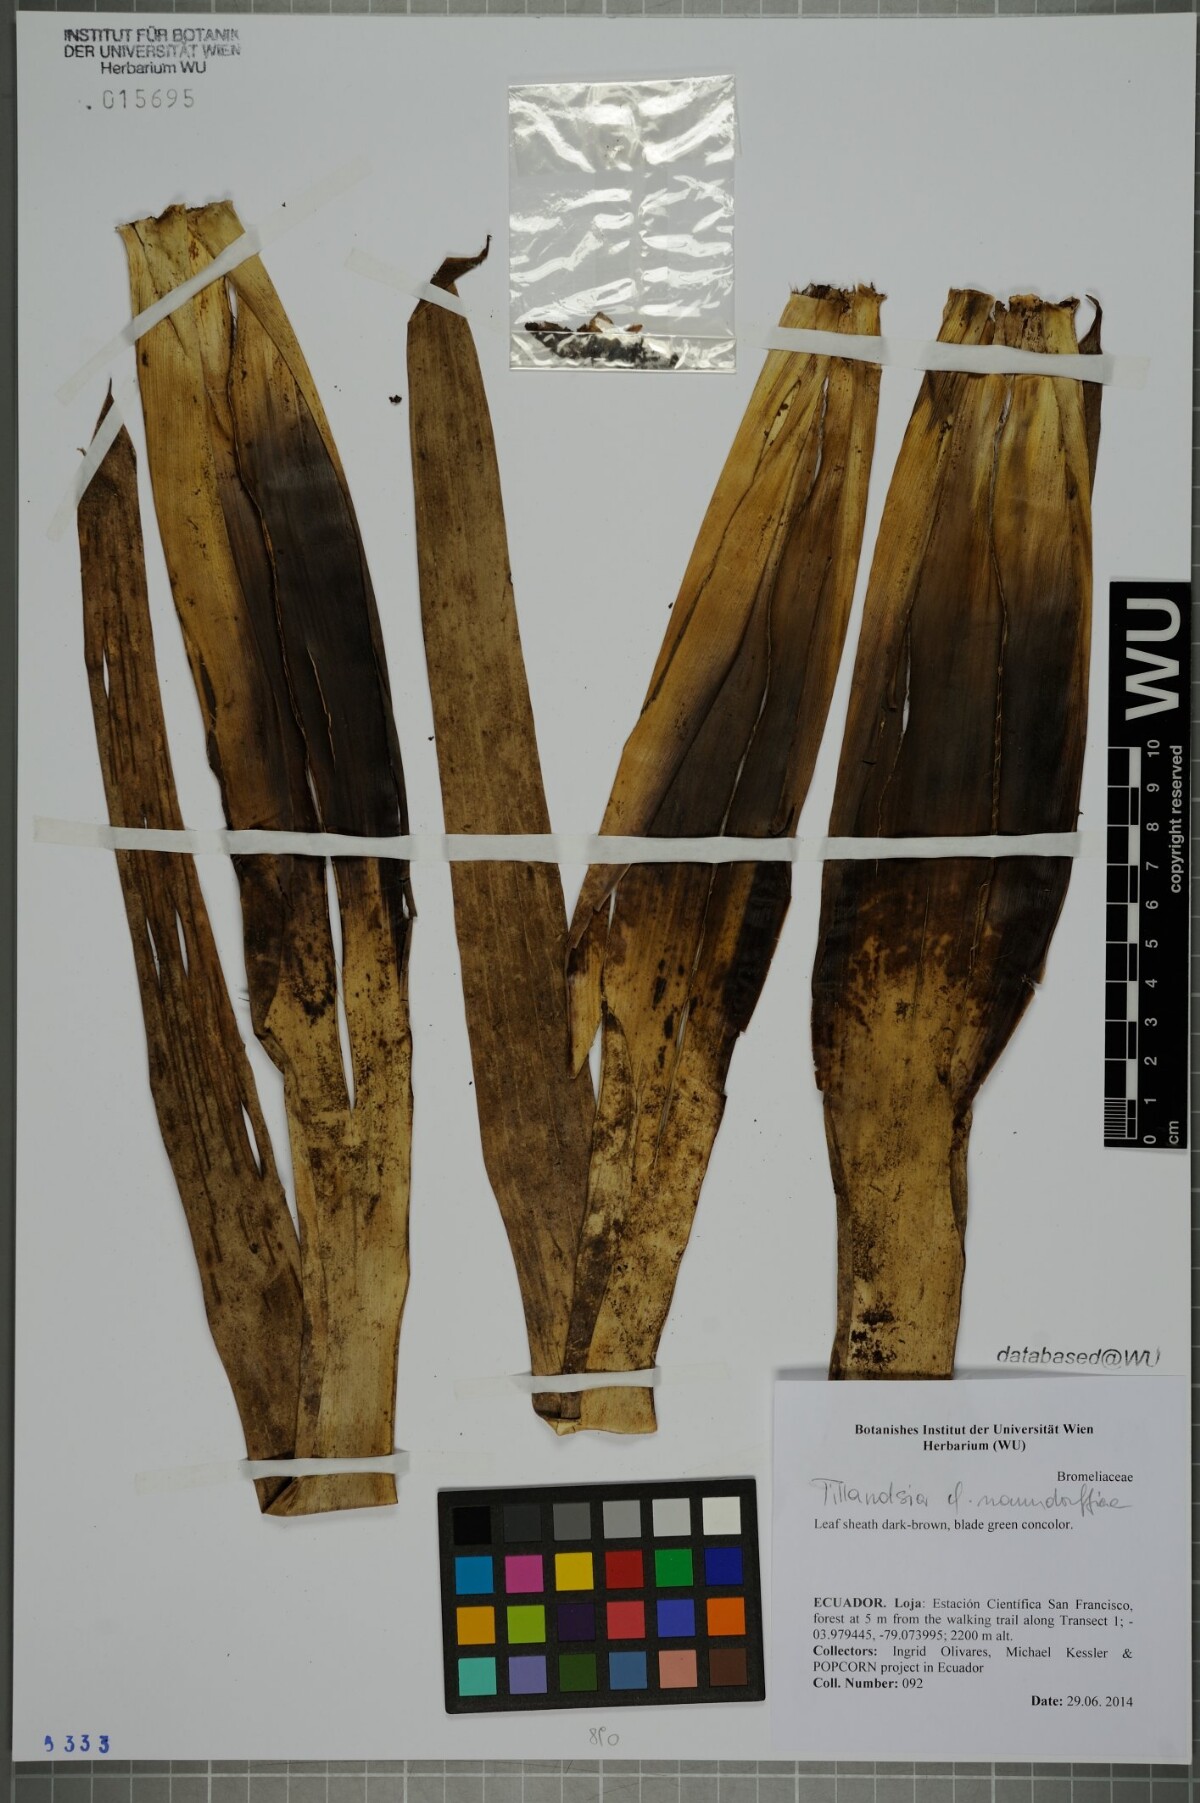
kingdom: Plantae
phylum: Tracheophyta
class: Liliopsida
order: Poales
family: Bromeliaceae
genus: Tillandsia
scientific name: Tillandsia stenoura
